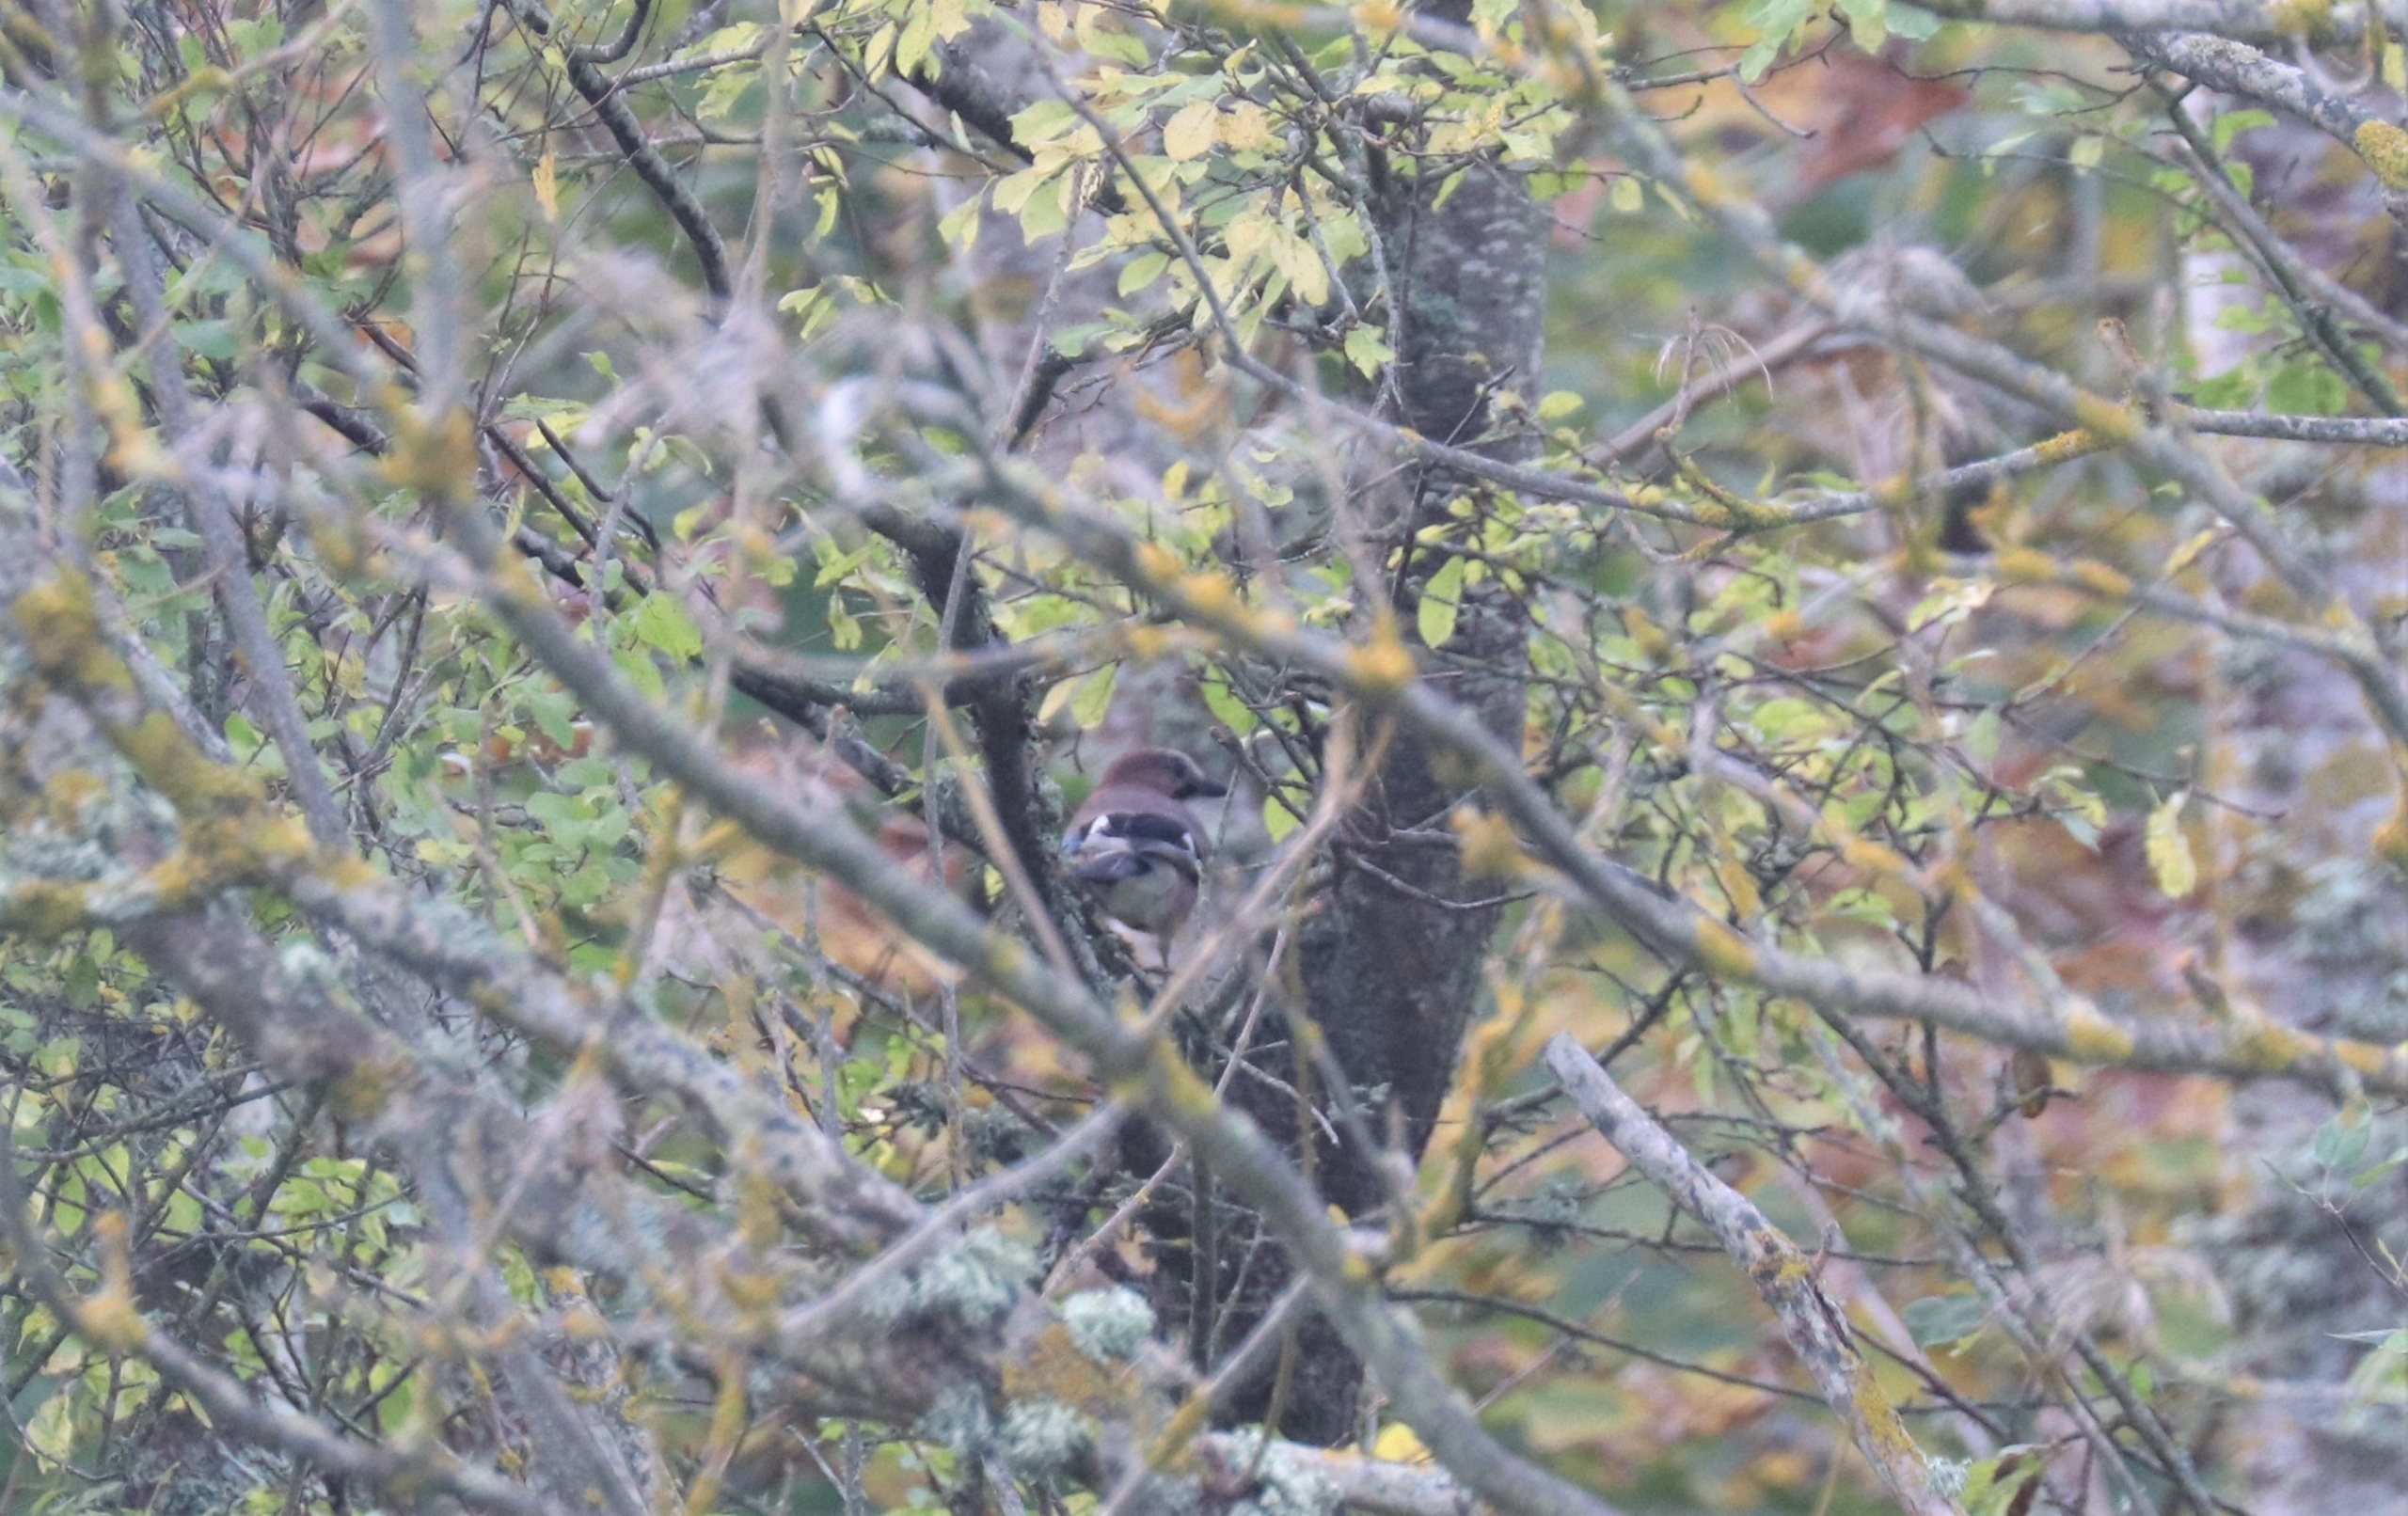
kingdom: Animalia
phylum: Chordata
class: Aves
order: Passeriformes
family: Corvidae
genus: Garrulus
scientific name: Garrulus glandarius
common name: Skovskade
